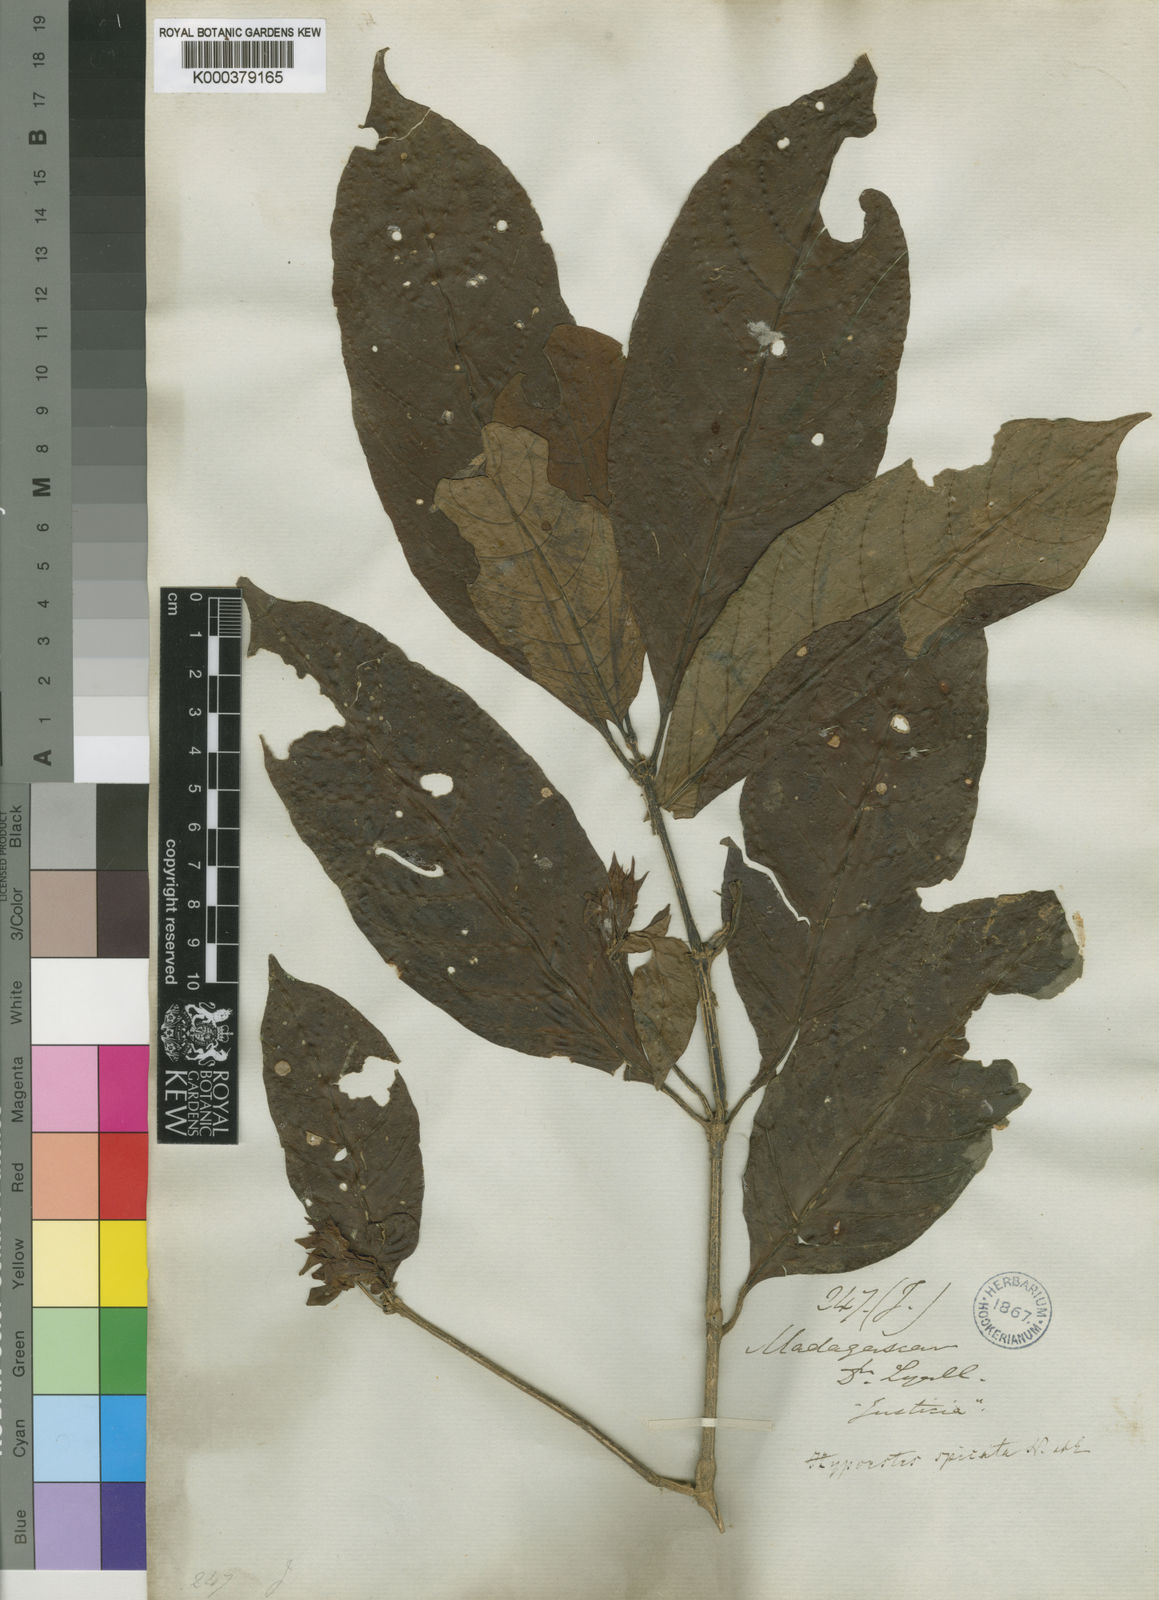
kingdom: Plantae
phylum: Tracheophyta
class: Magnoliopsida
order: Lamiales
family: Acanthaceae
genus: Hypoestes
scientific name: Hypoestes spicata
